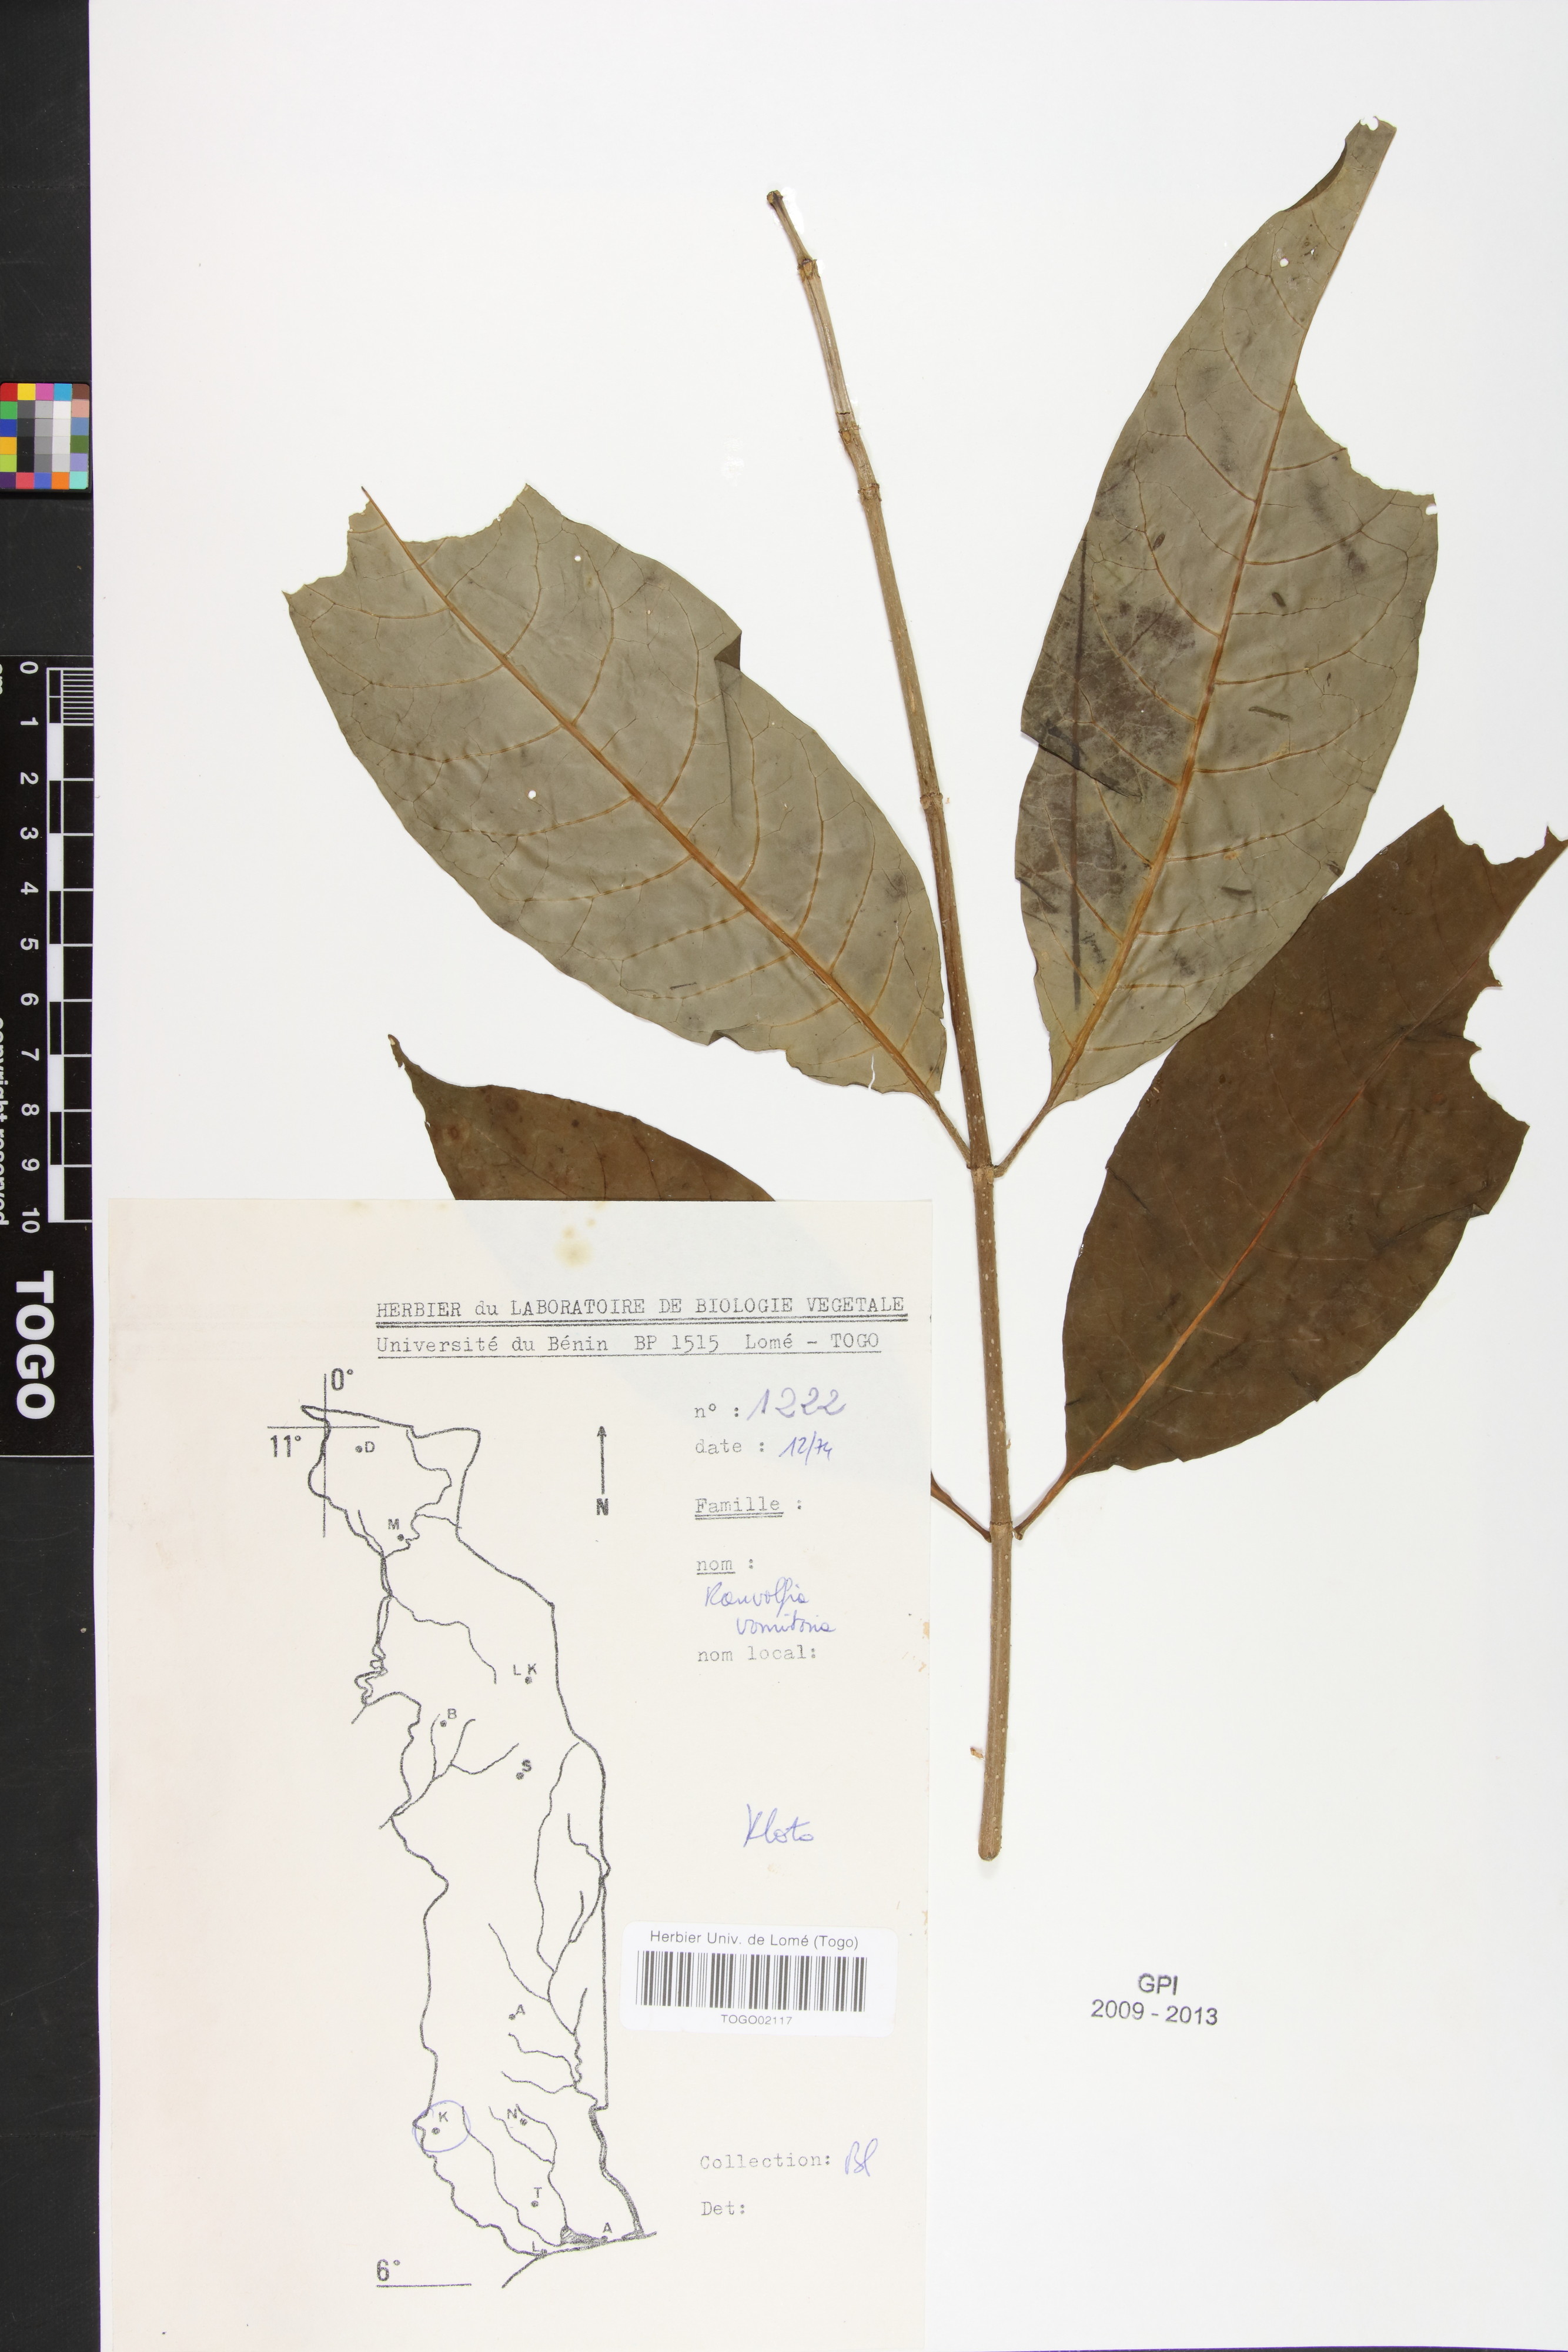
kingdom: Plantae
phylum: Tracheophyta
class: Magnoliopsida
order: Gentianales
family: Apocynaceae
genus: Rauvolfia
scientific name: Rauvolfia vomitoria
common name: Poison devil's-pepper
